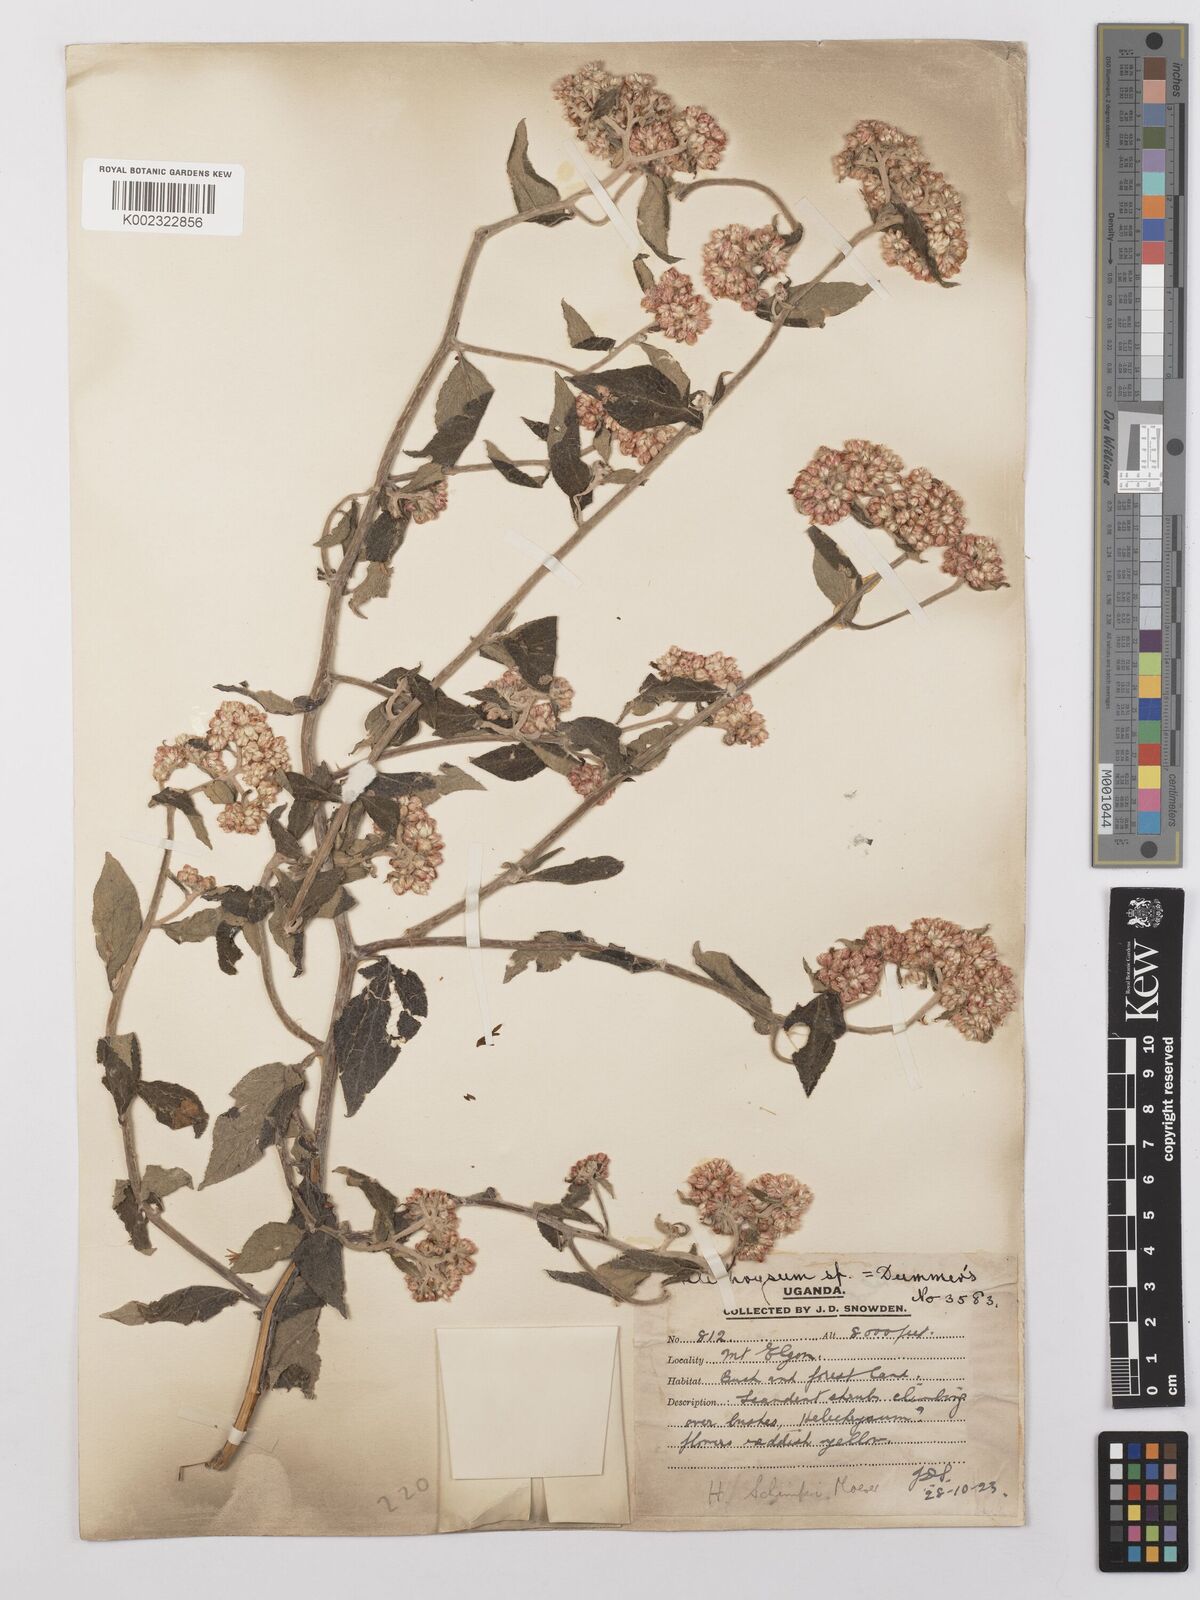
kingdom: Plantae
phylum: Tracheophyta
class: Magnoliopsida
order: Asterales
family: Asteraceae
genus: Helichrysum
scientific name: Helichrysum schimperi
